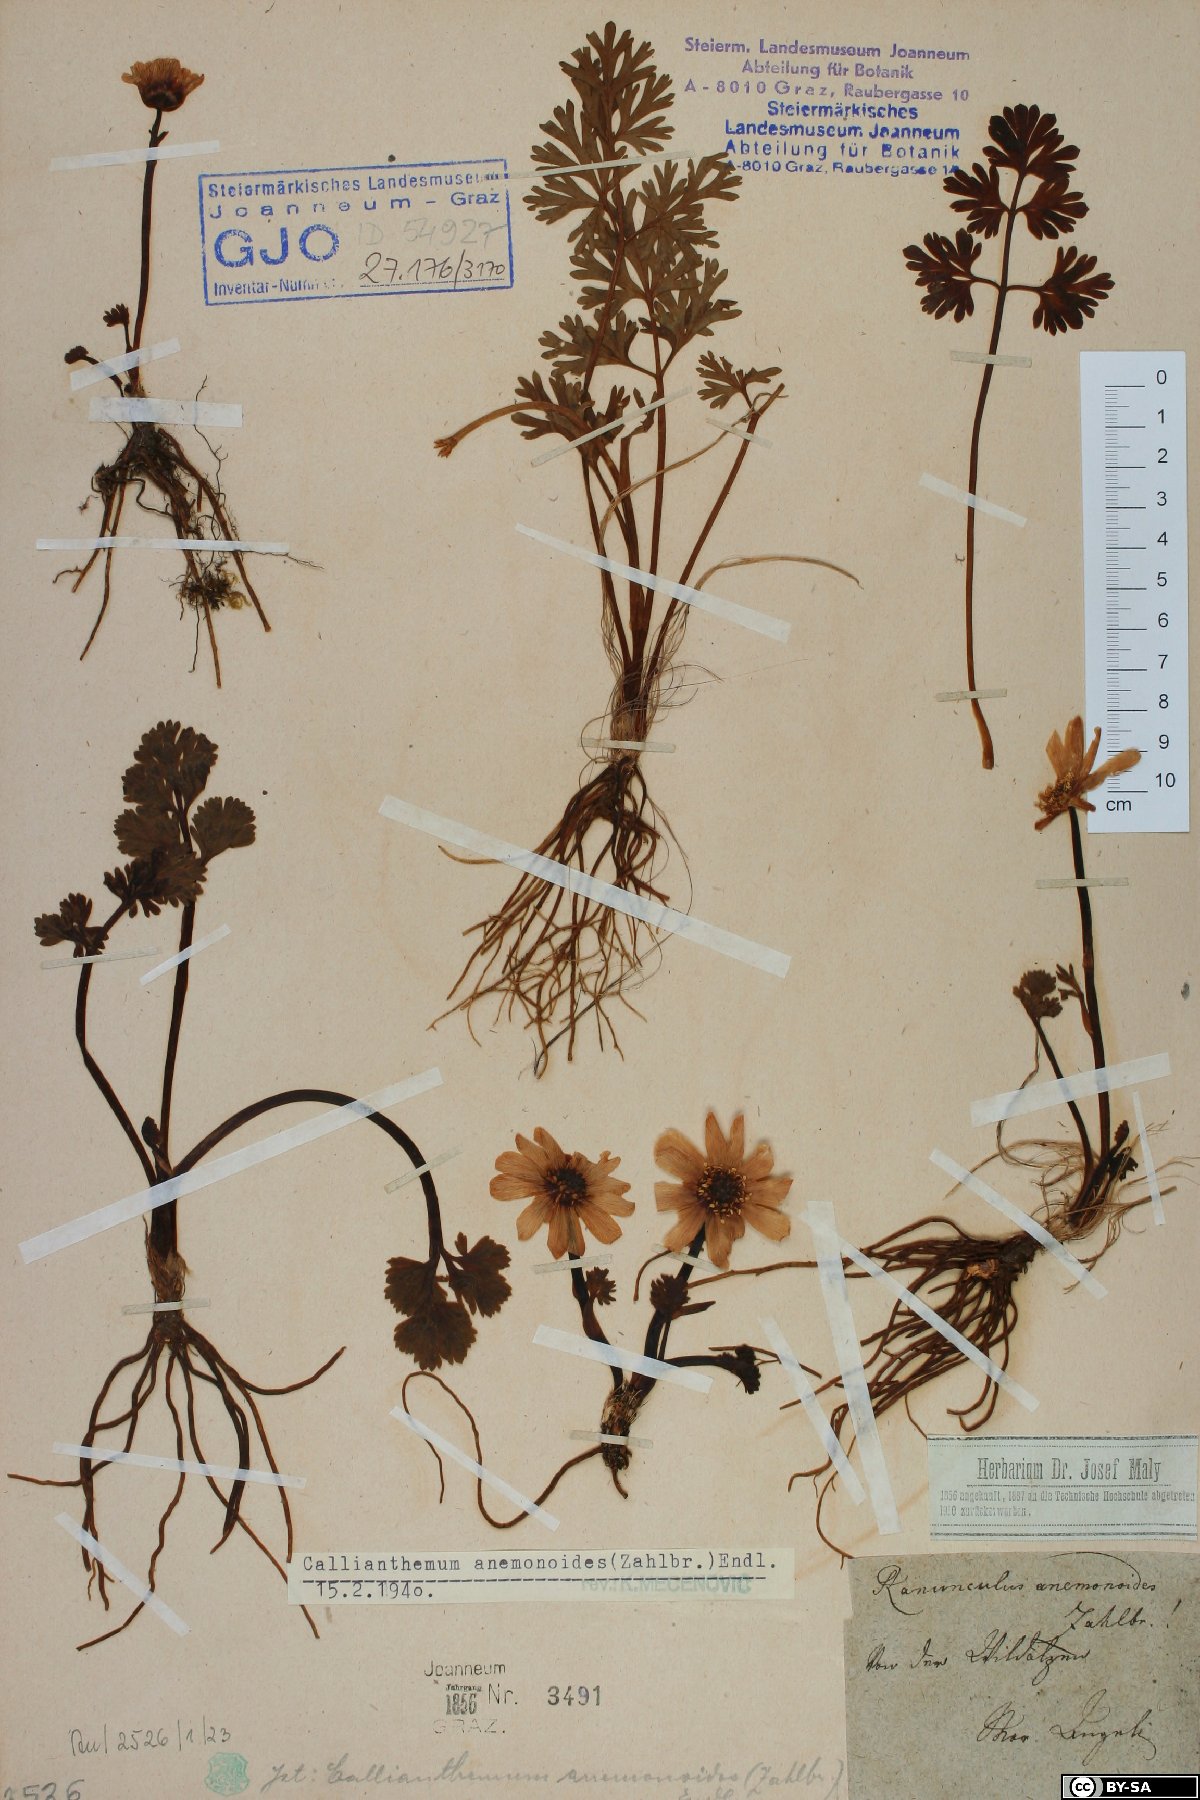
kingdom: Plantae
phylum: Tracheophyta
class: Magnoliopsida
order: Ranunculales
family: Ranunculaceae
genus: Callianthemum
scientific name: Callianthemum anemonoides
